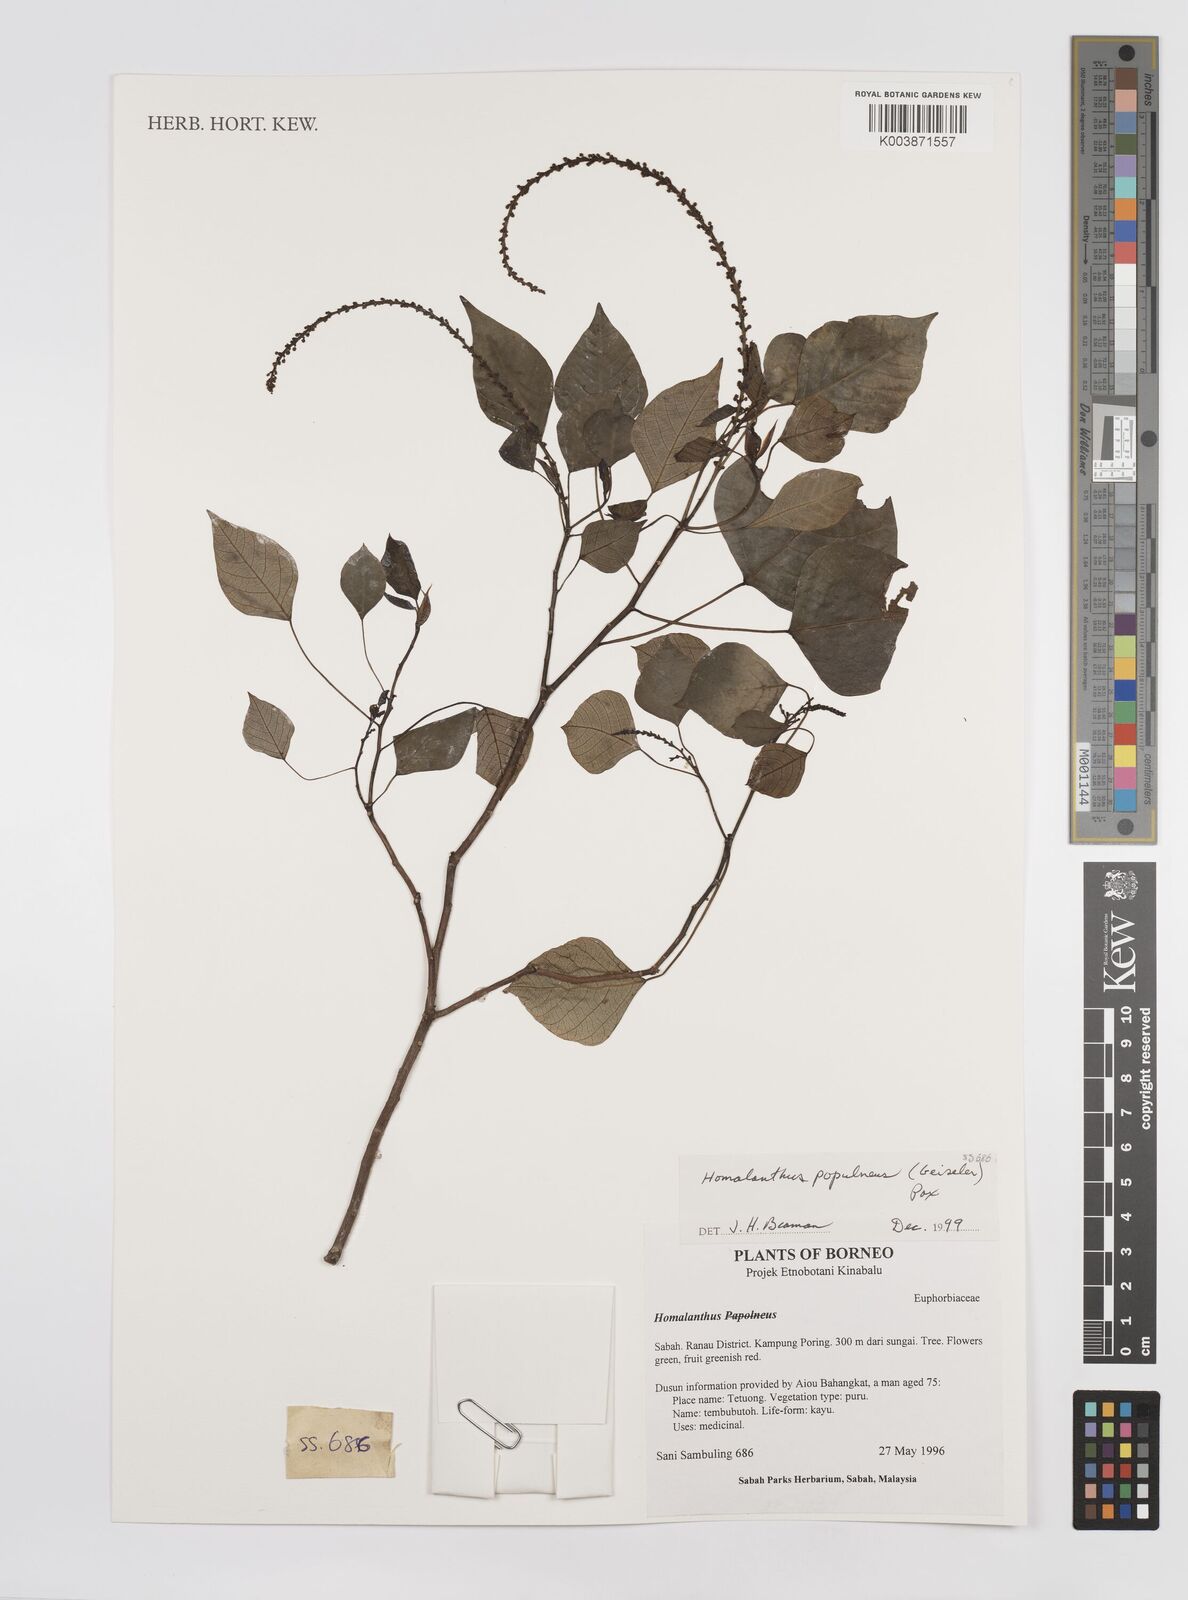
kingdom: Plantae
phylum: Tracheophyta
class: Magnoliopsida
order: Malpighiales
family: Euphorbiaceae
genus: Homalanthus
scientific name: Homalanthus populneus
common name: Spurge
